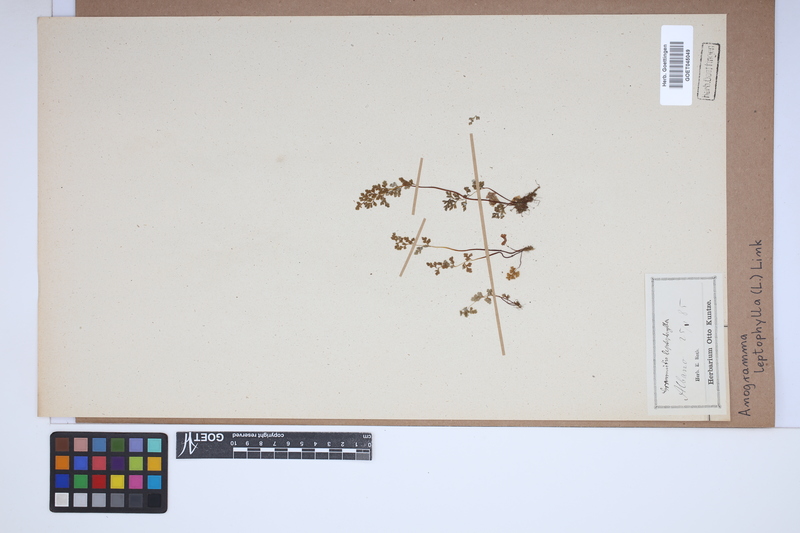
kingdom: Plantae
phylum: Tracheophyta
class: Polypodiopsida
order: Polypodiales
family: Pteridaceae
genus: Anogramma
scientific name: Anogramma leptophylla
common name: Jersey fern
